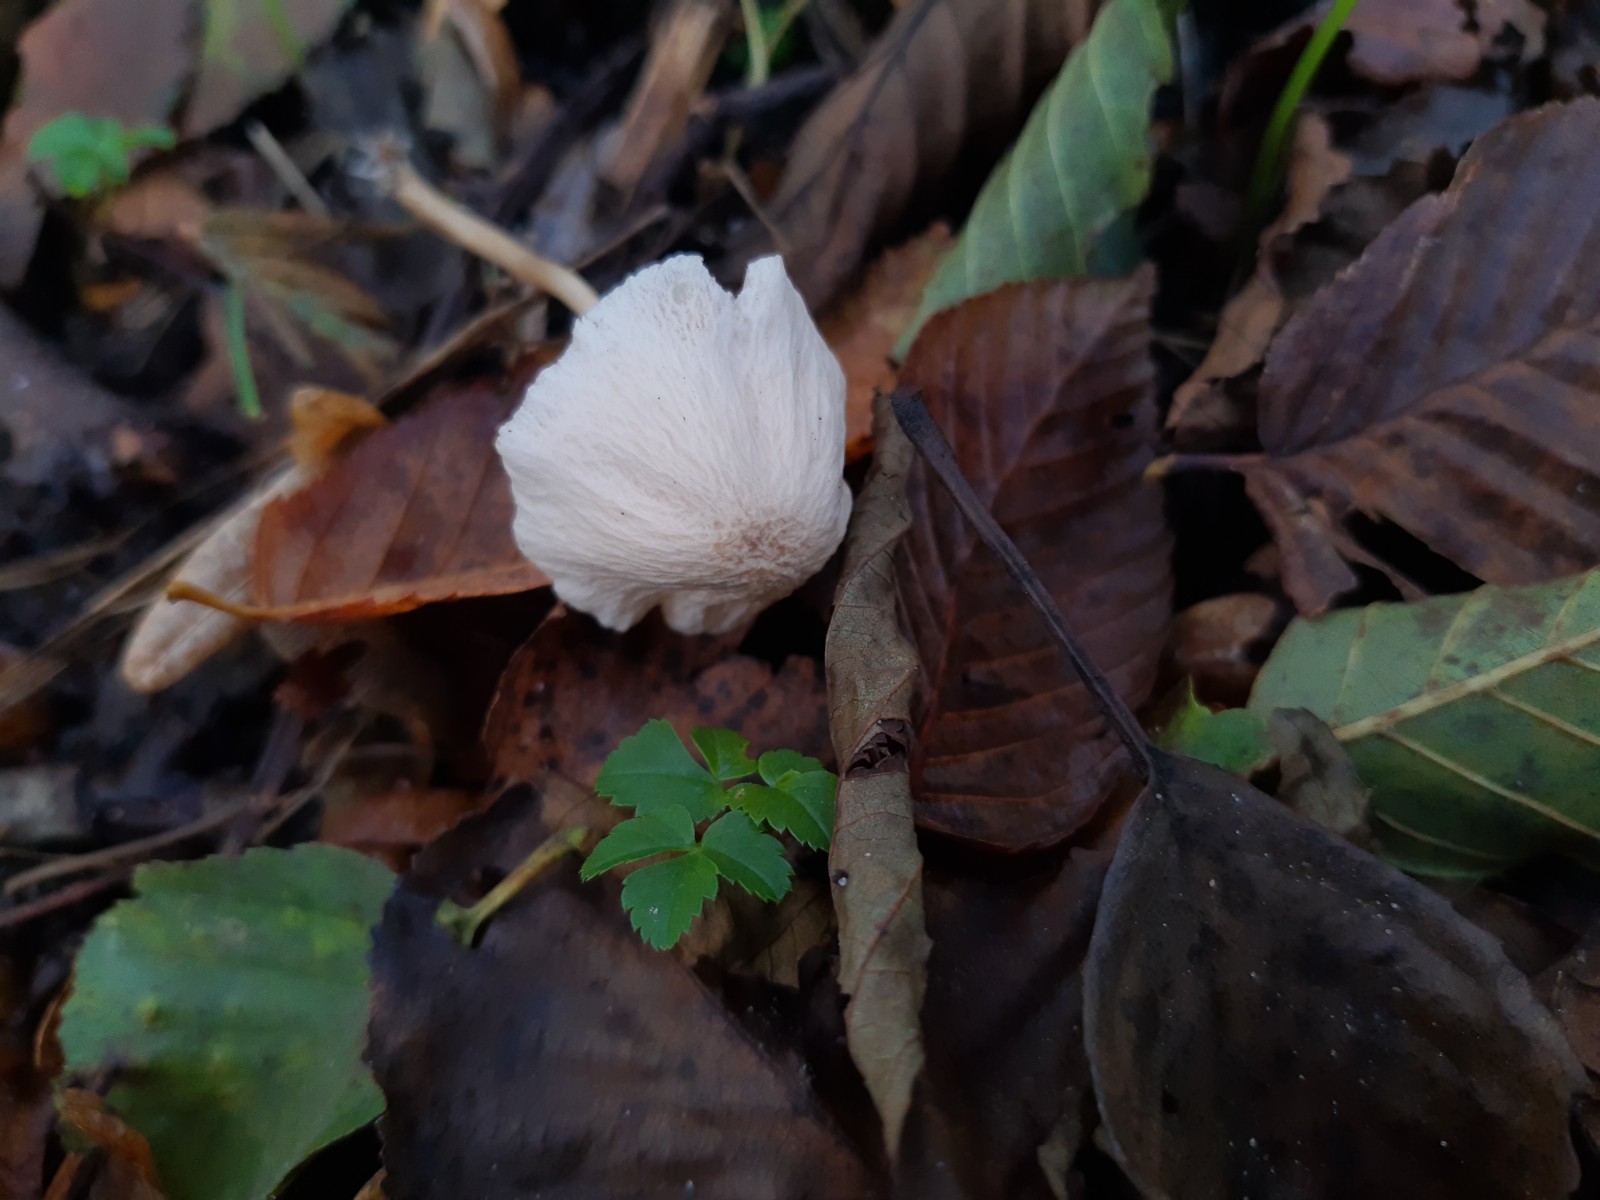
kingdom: Fungi
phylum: Basidiomycota
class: Agaricomycetes
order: Agaricales
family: Mycenaceae
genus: Mycena
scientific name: Mycena
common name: huesvamp
